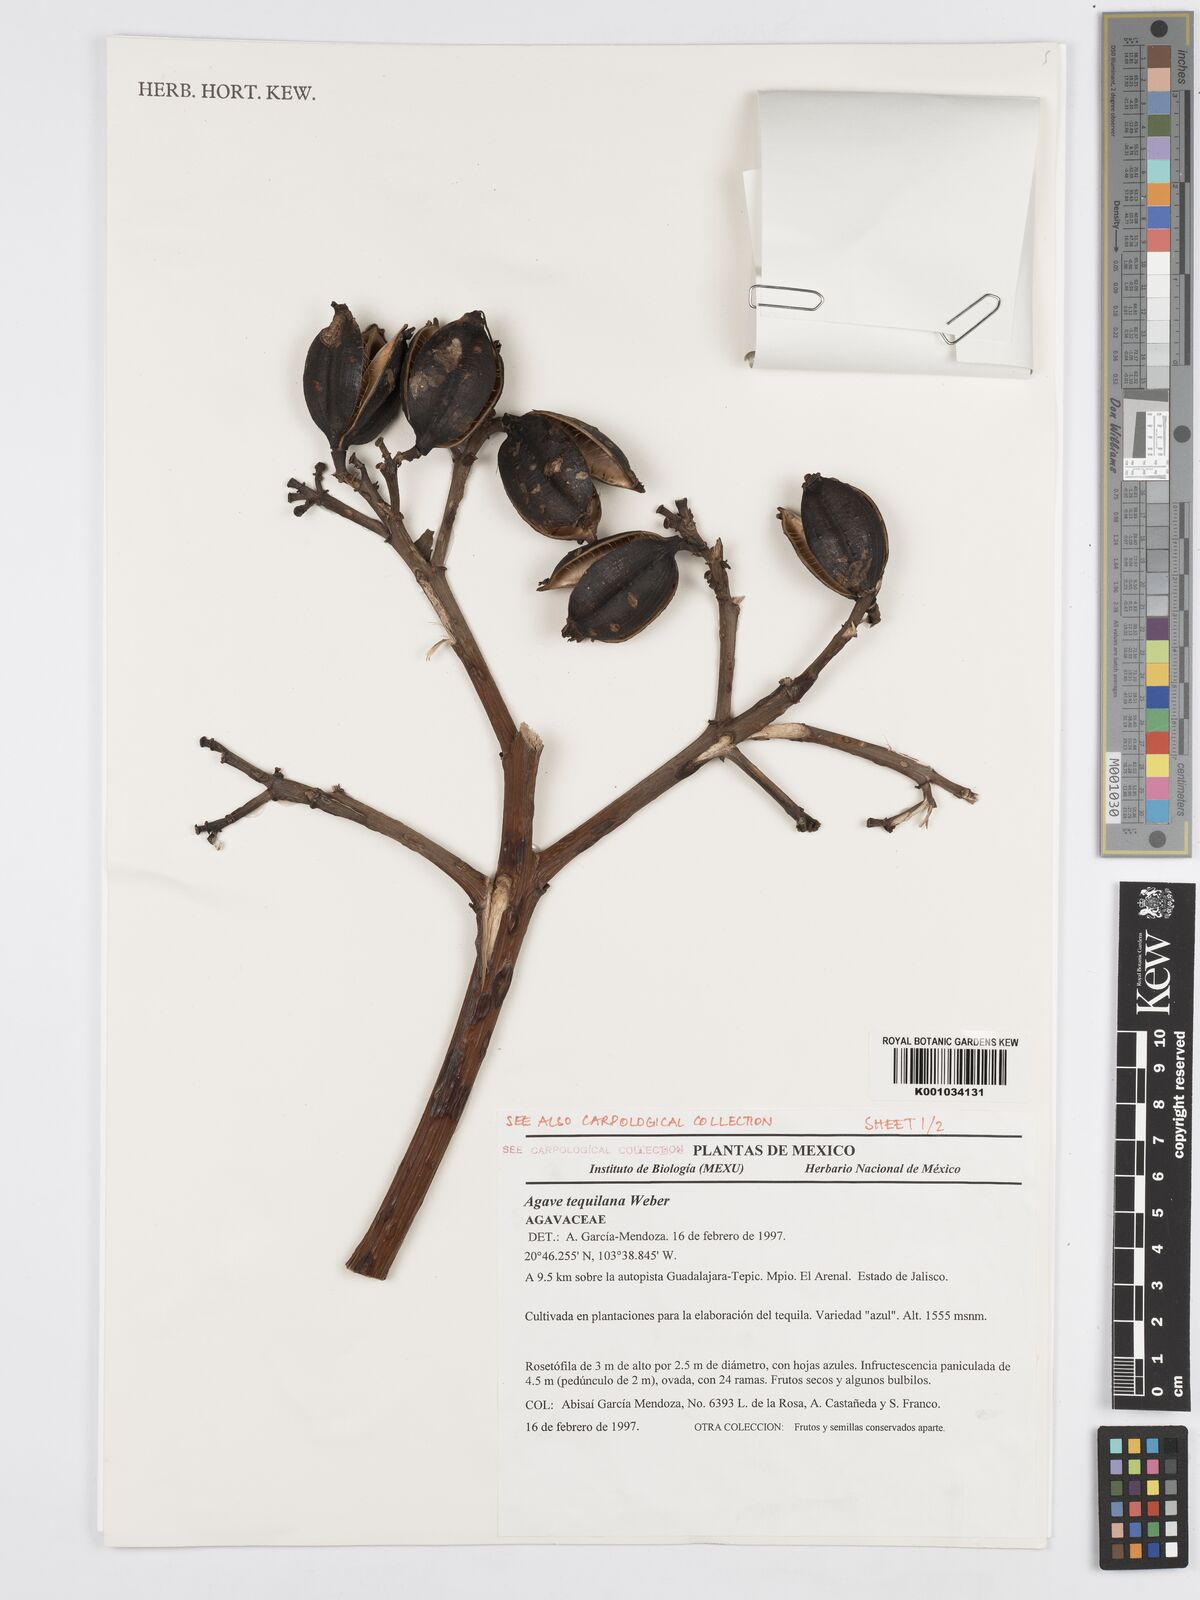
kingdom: Plantae
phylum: Tracheophyta
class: Liliopsida
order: Asparagales
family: Asparagaceae
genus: Agave
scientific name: Agave tequilana
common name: Tequila agave
